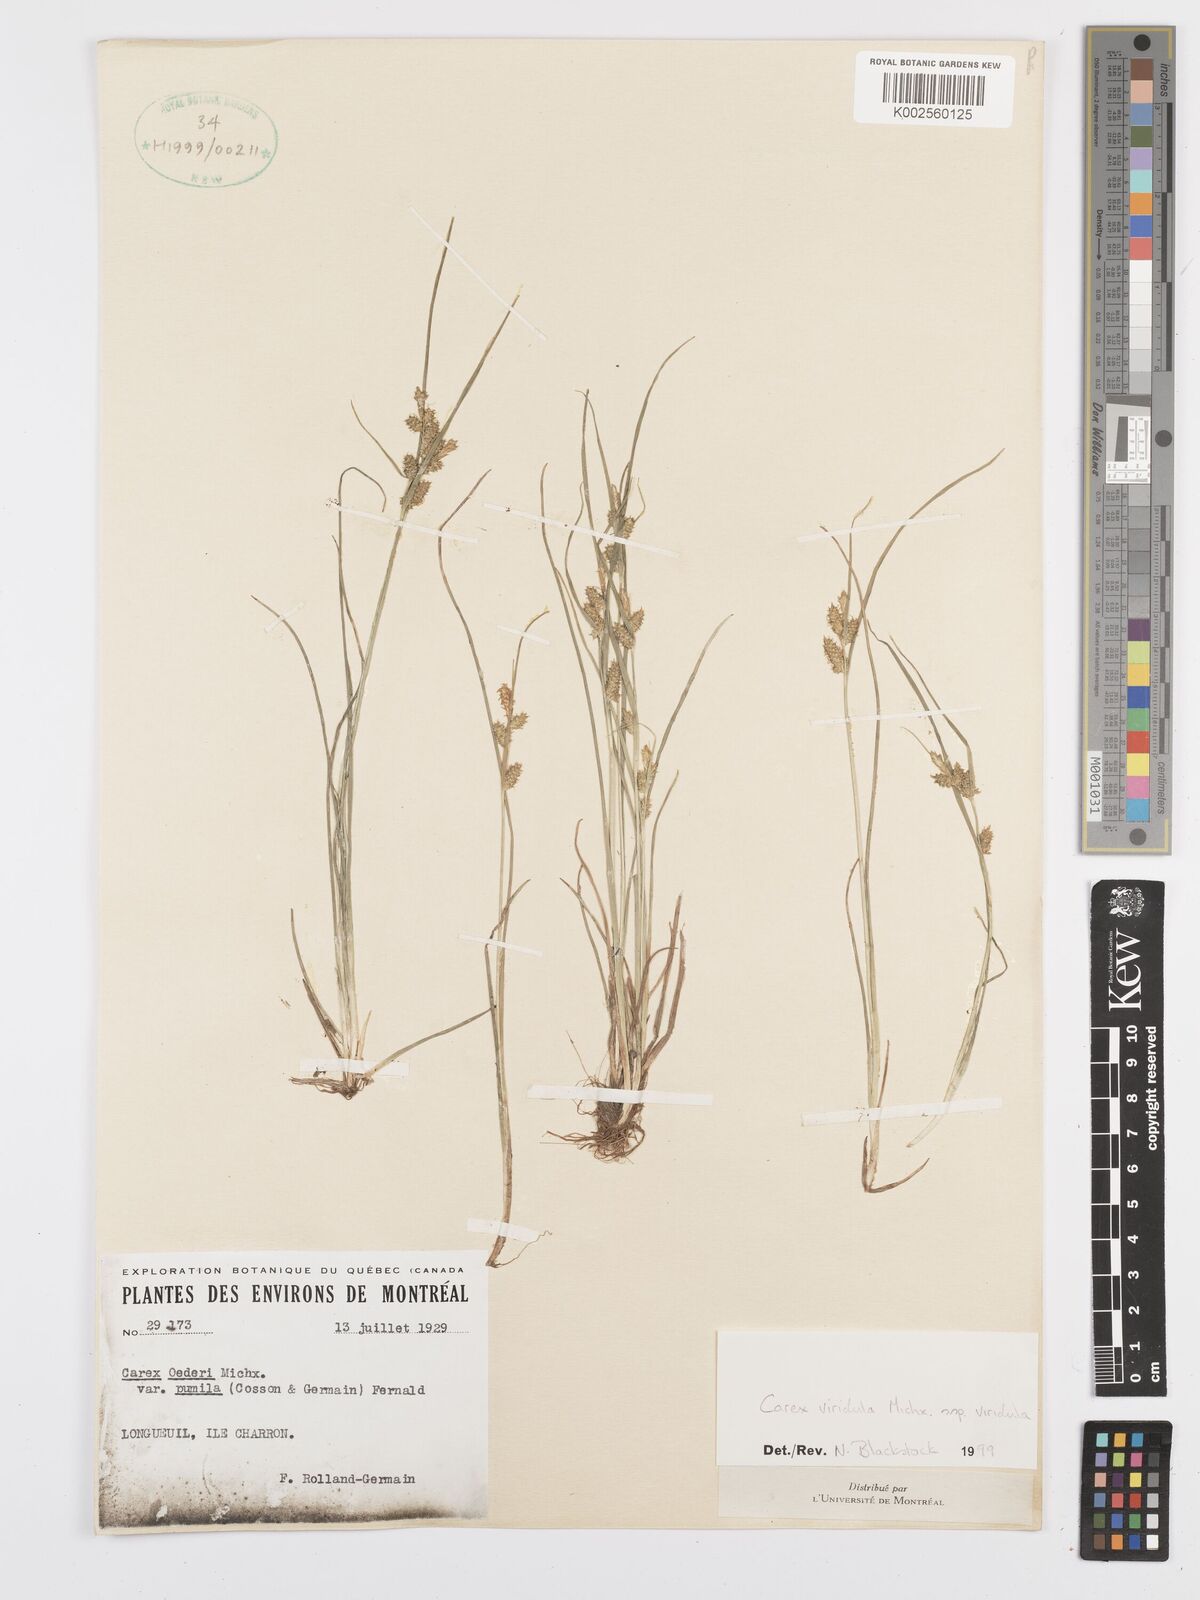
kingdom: Plantae
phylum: Tracheophyta
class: Liliopsida
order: Poales
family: Cyperaceae
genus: Carex
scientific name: Carex oederi
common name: Common & small-fruited yellow-sedge
